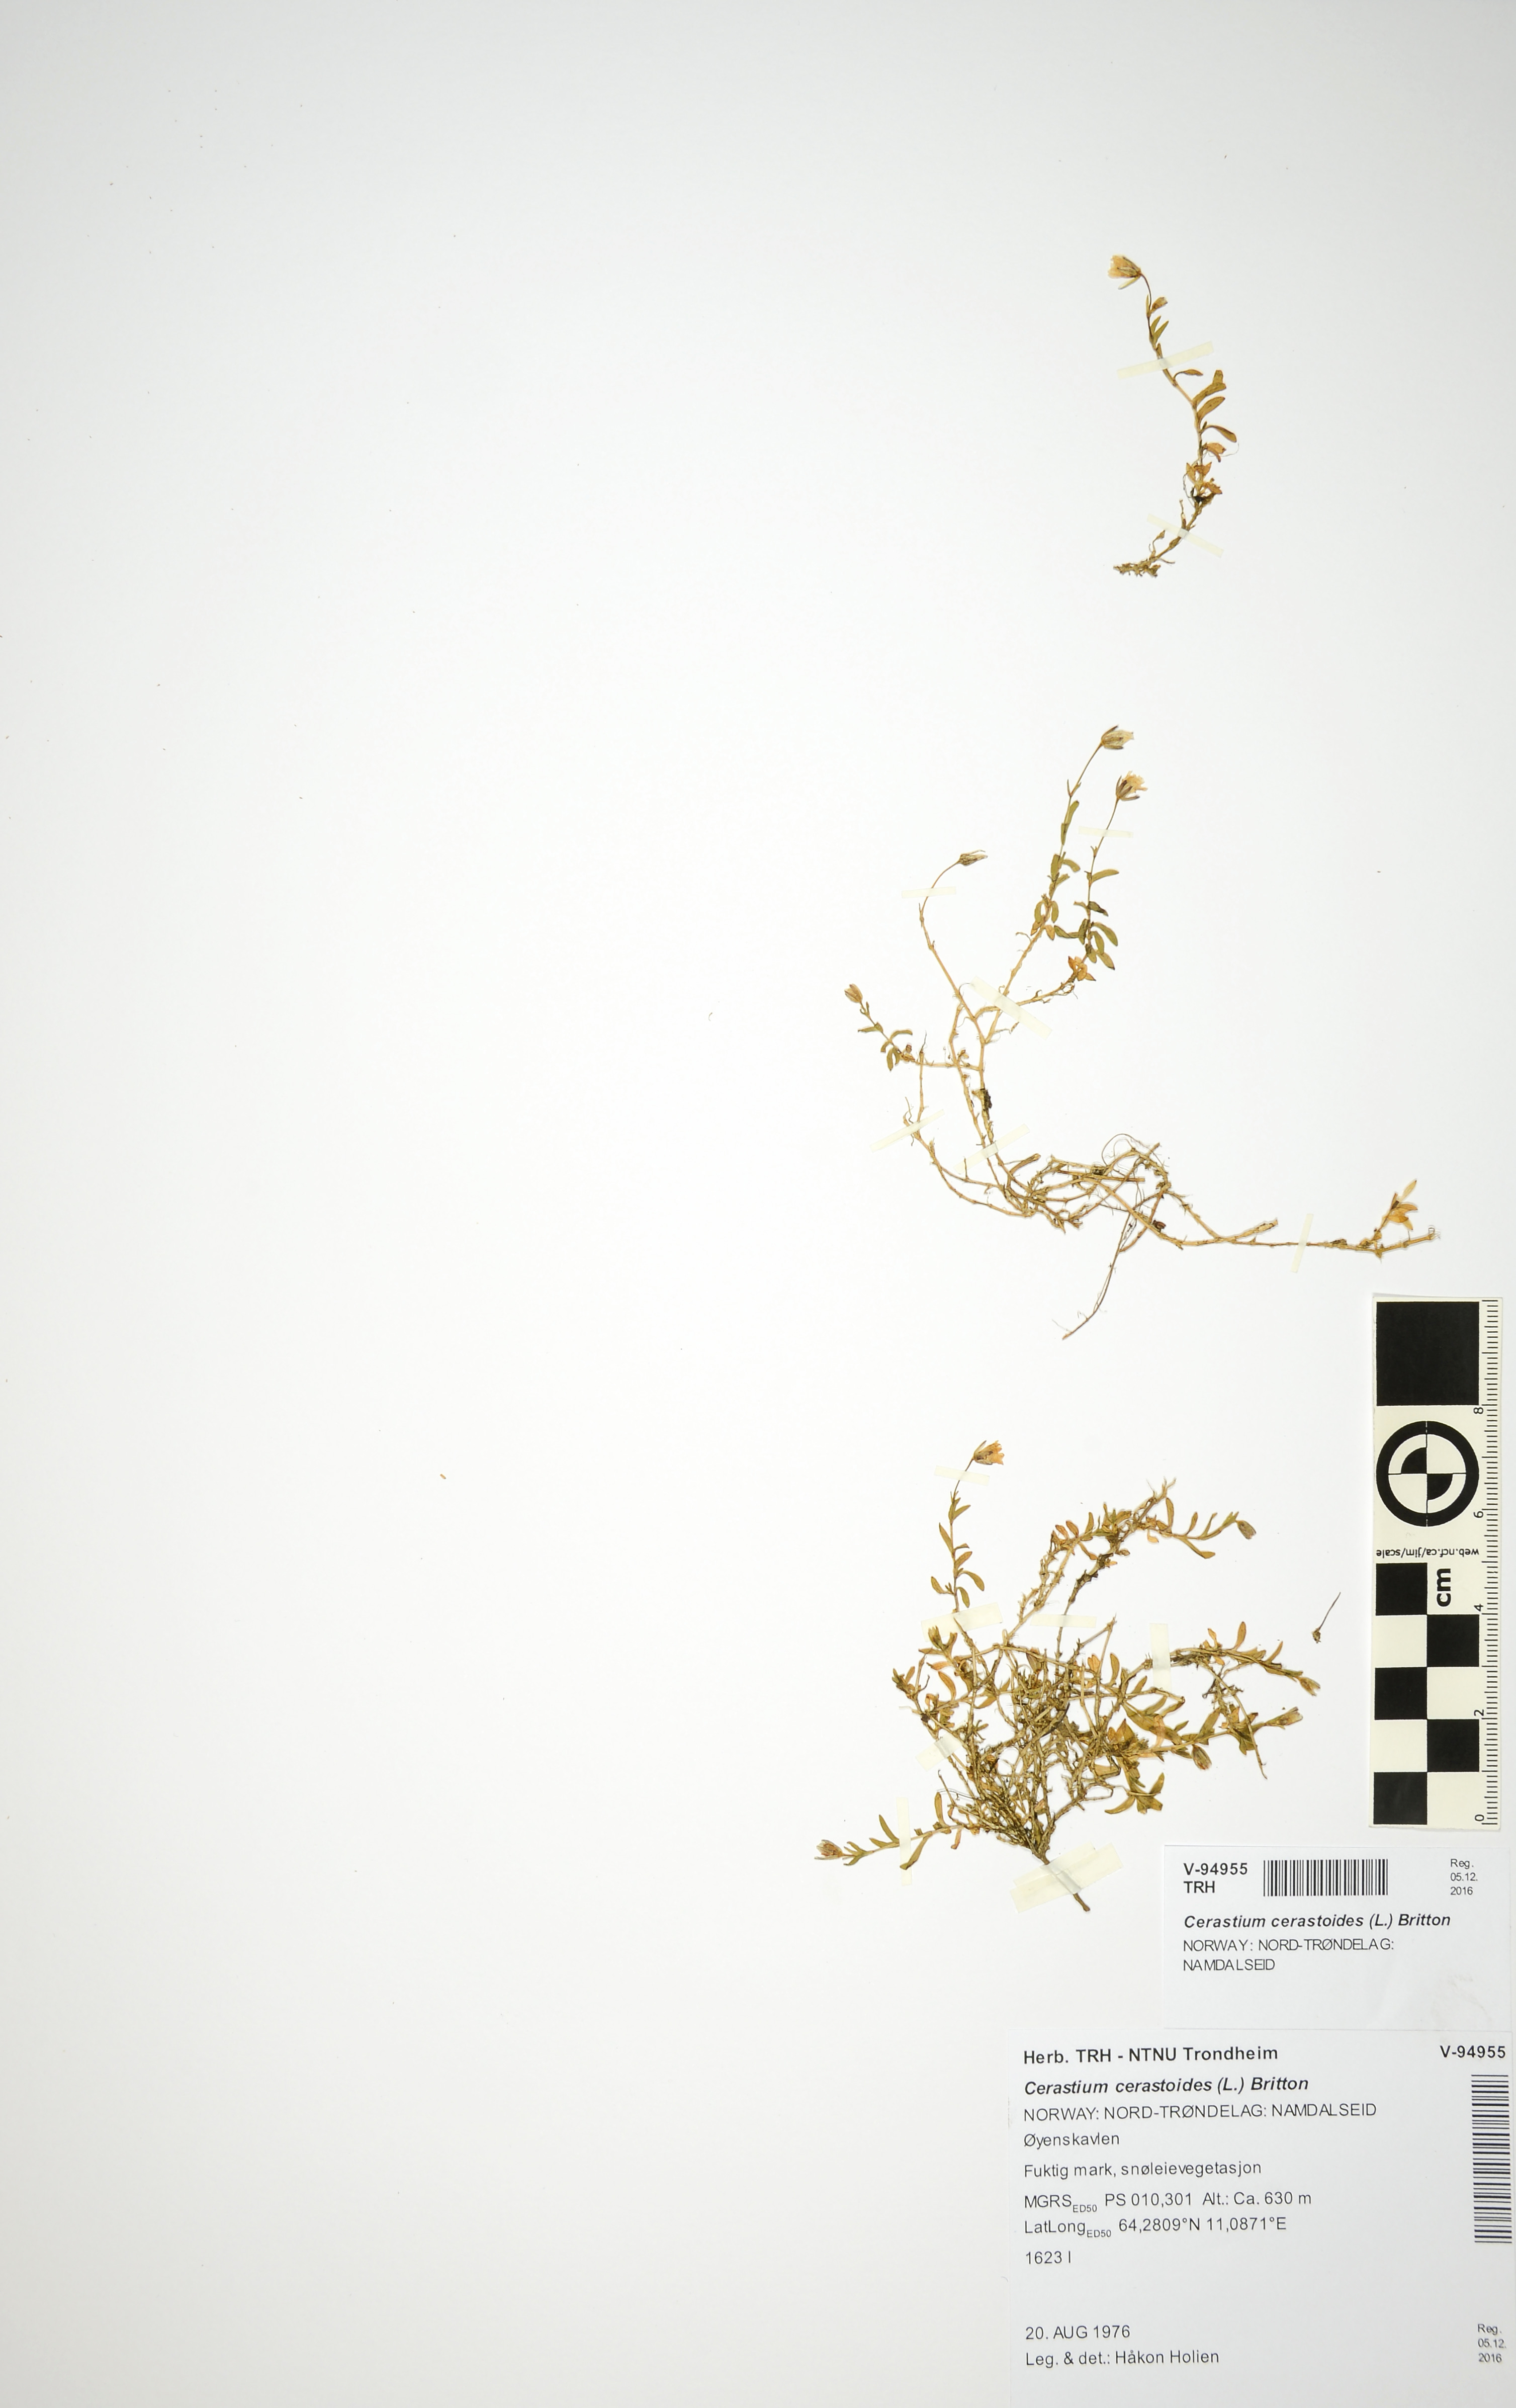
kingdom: Plantae
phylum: Tracheophyta
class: Magnoliopsida
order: Caryophyllales
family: Caryophyllaceae
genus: Dichodon
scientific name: Dichodon cerastoides
